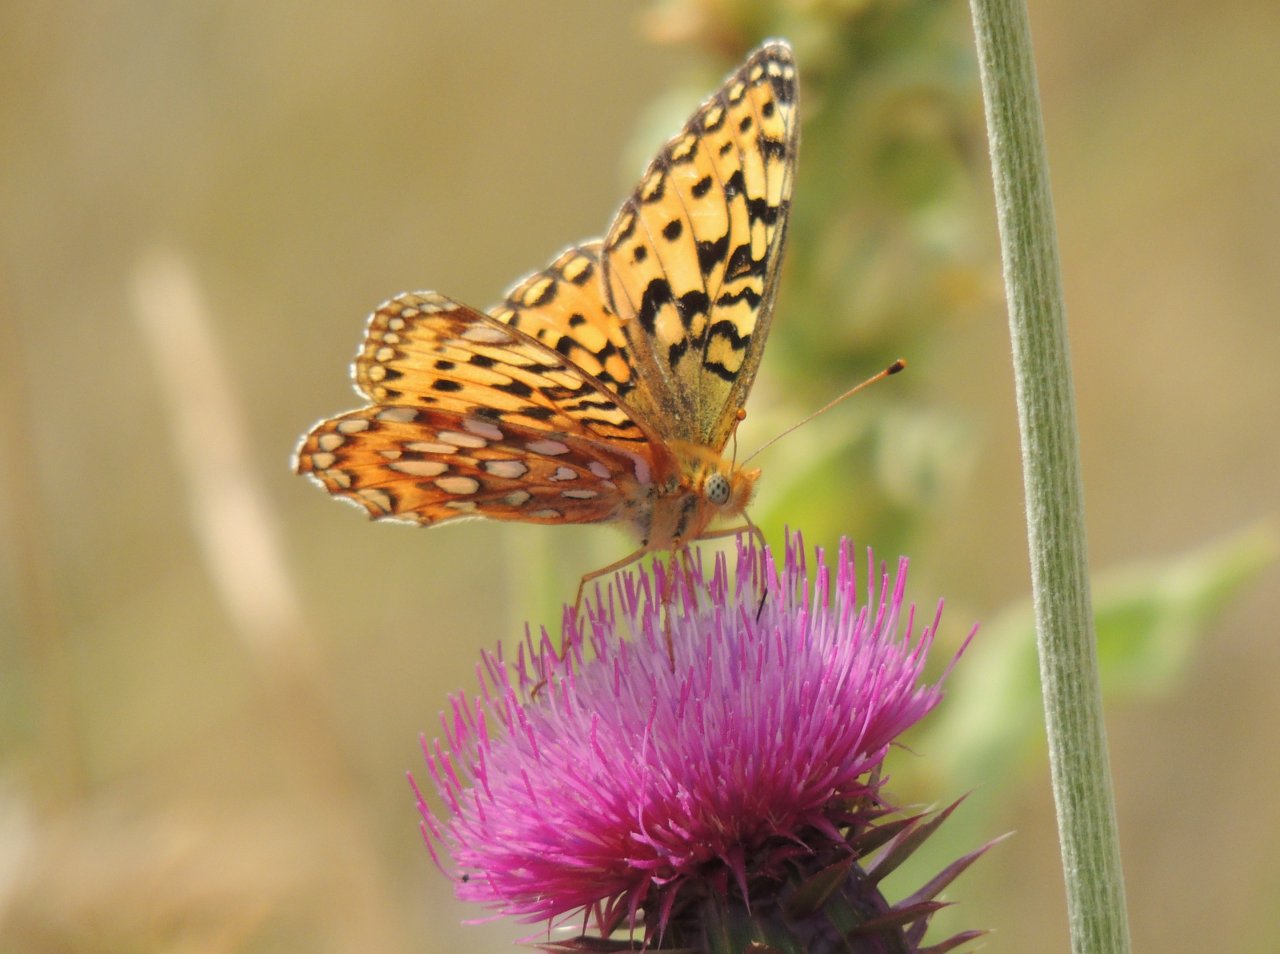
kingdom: Animalia
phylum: Arthropoda
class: Insecta
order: Lepidoptera
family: Nymphalidae
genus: Speyeria
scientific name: Speyeria zerene
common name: Zerene Fritillary
